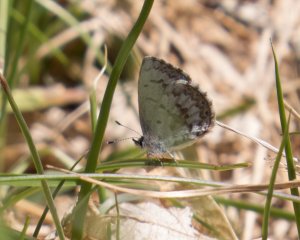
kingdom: Animalia
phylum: Arthropoda
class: Insecta
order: Lepidoptera
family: Lycaenidae
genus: Celastrina
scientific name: Celastrina lucia
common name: Northern Spring Azure
